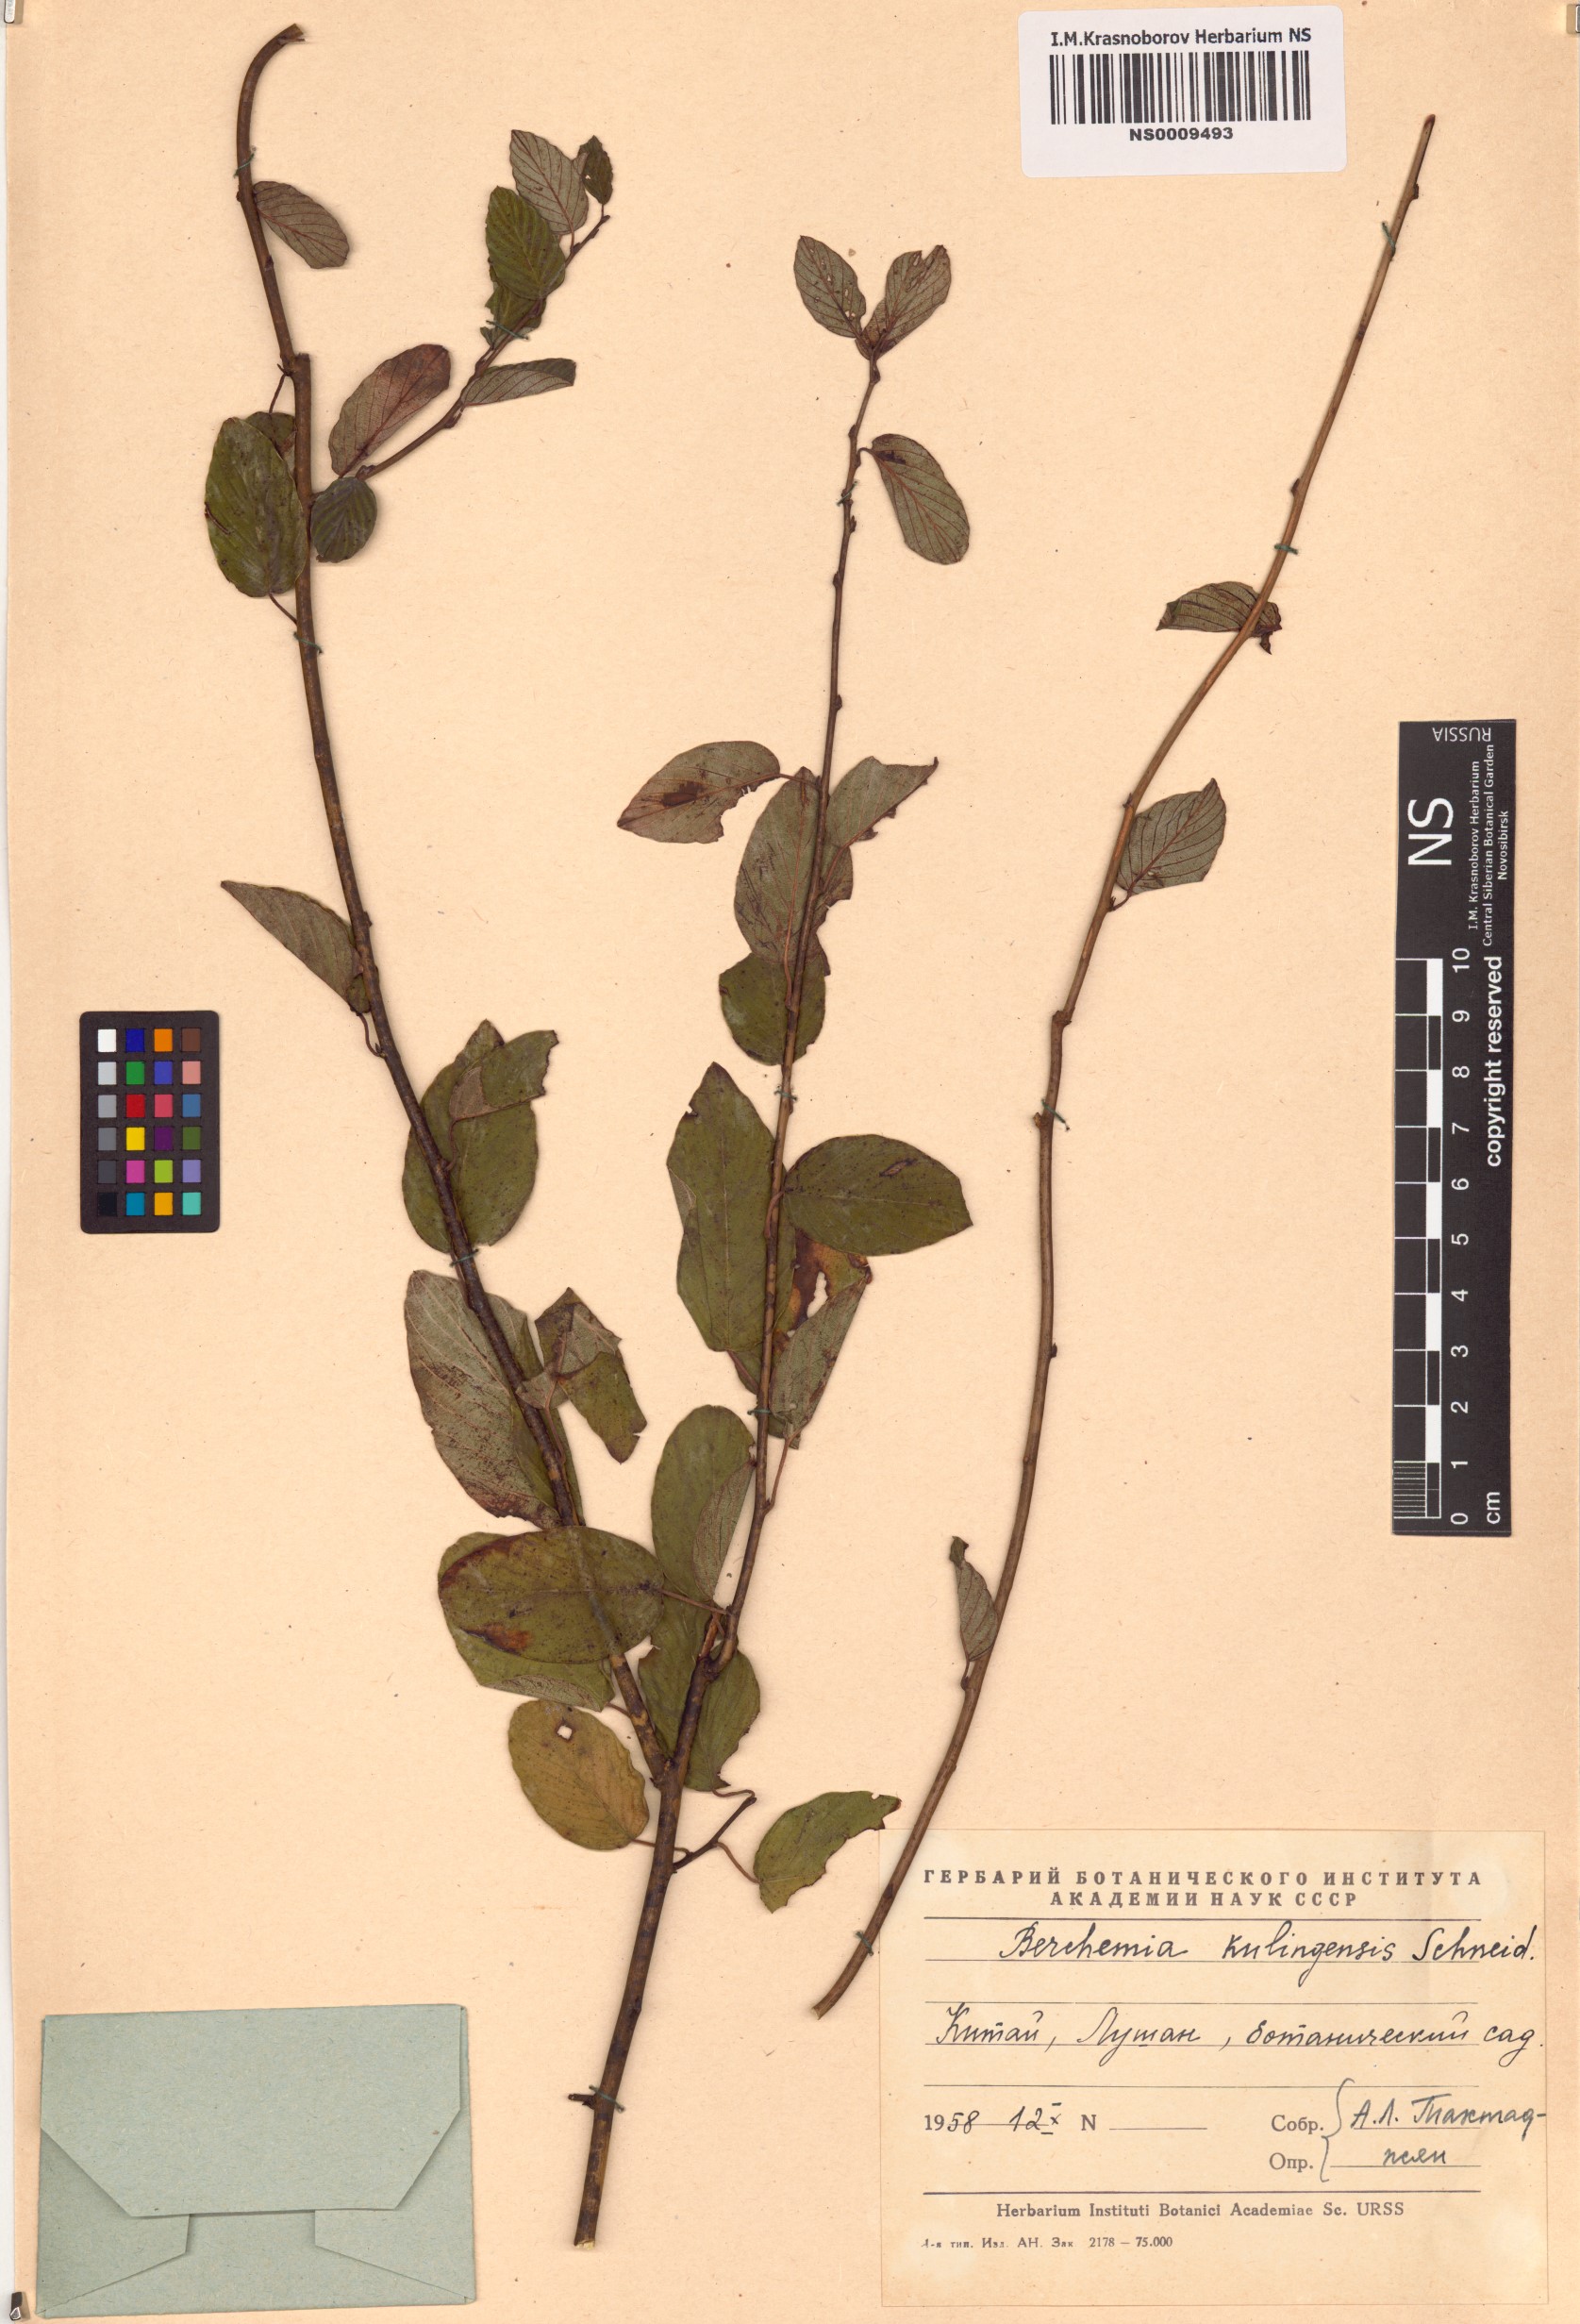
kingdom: Plantae
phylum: Tracheophyta
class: Magnoliopsida
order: Rosales
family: Rhamnaceae
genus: Berchemia
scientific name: Berchemia kulingensis
